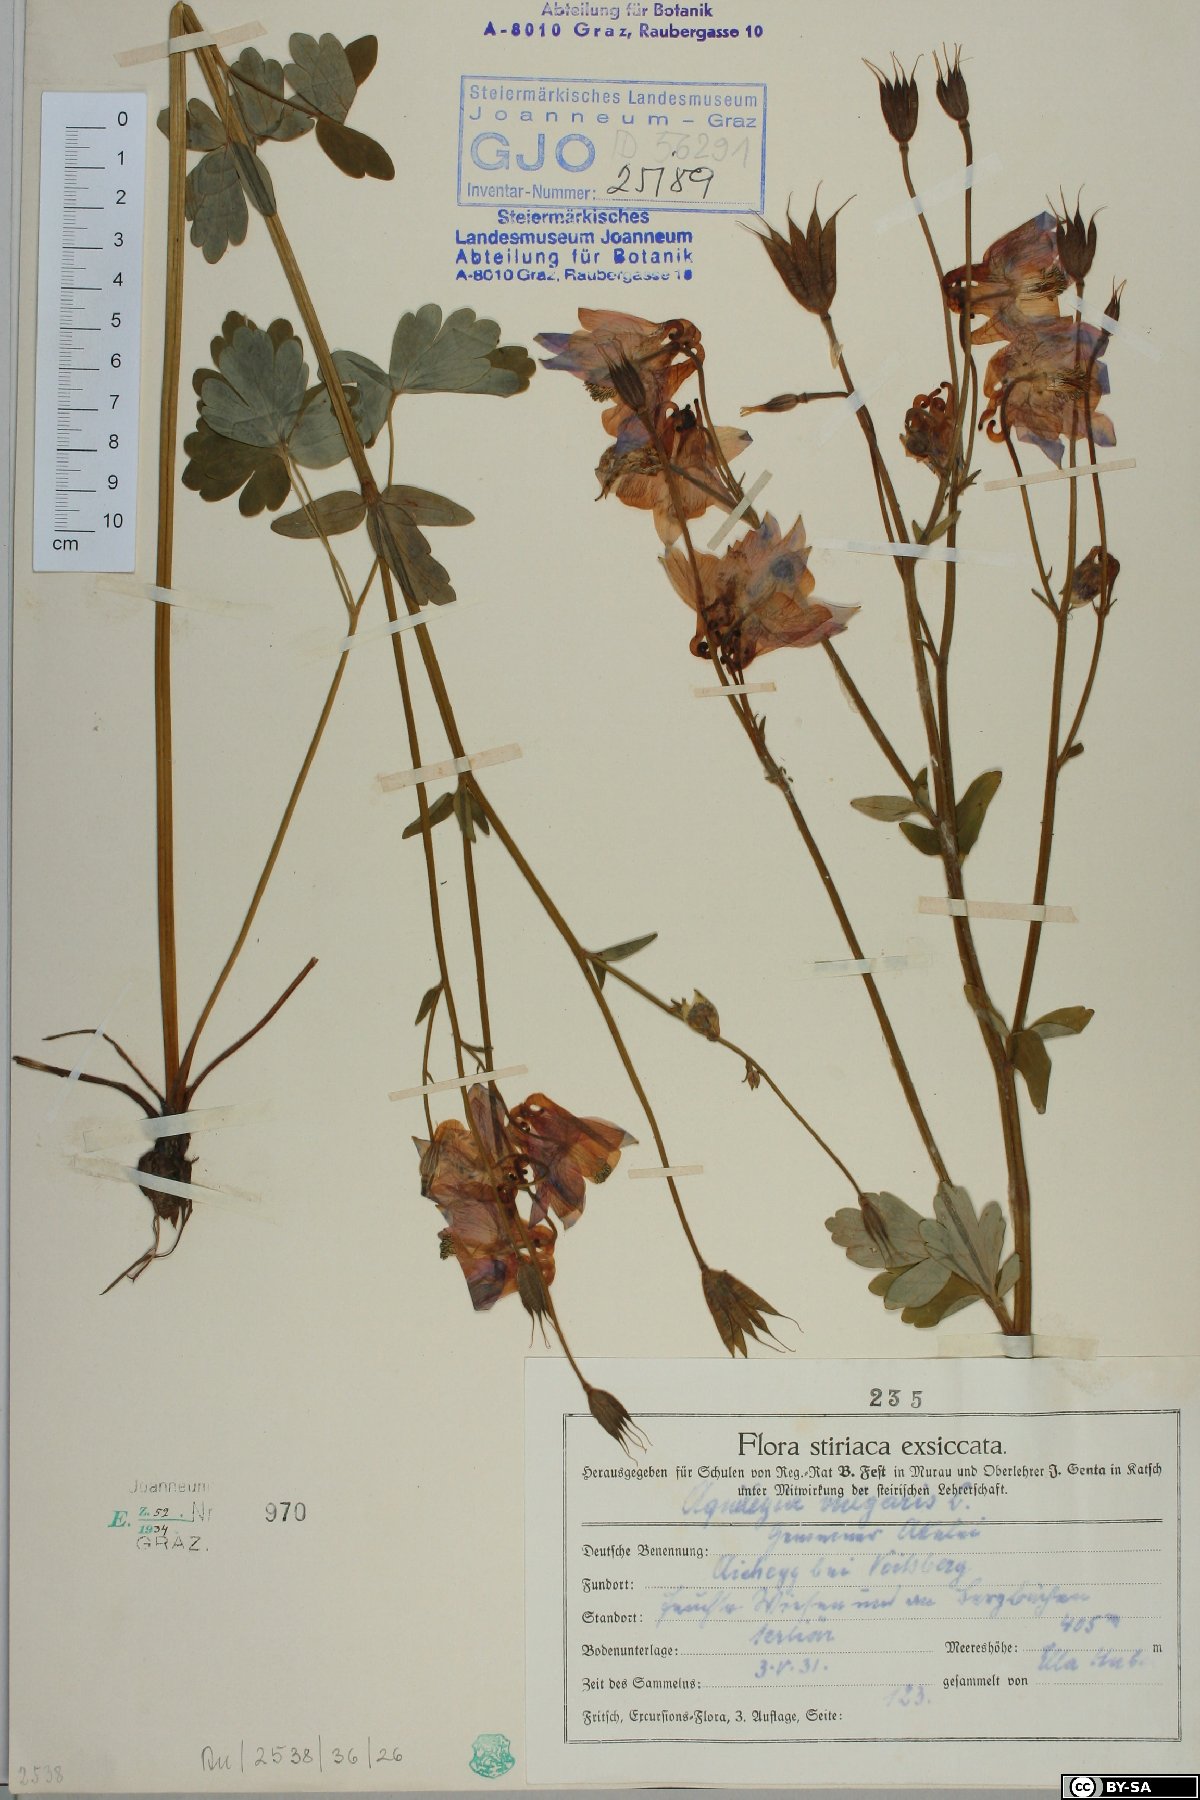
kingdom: Plantae
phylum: Tracheophyta
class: Magnoliopsida
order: Ranunculales
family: Ranunculaceae
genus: Aquilegia
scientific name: Aquilegia vulgaris
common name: Columbine
